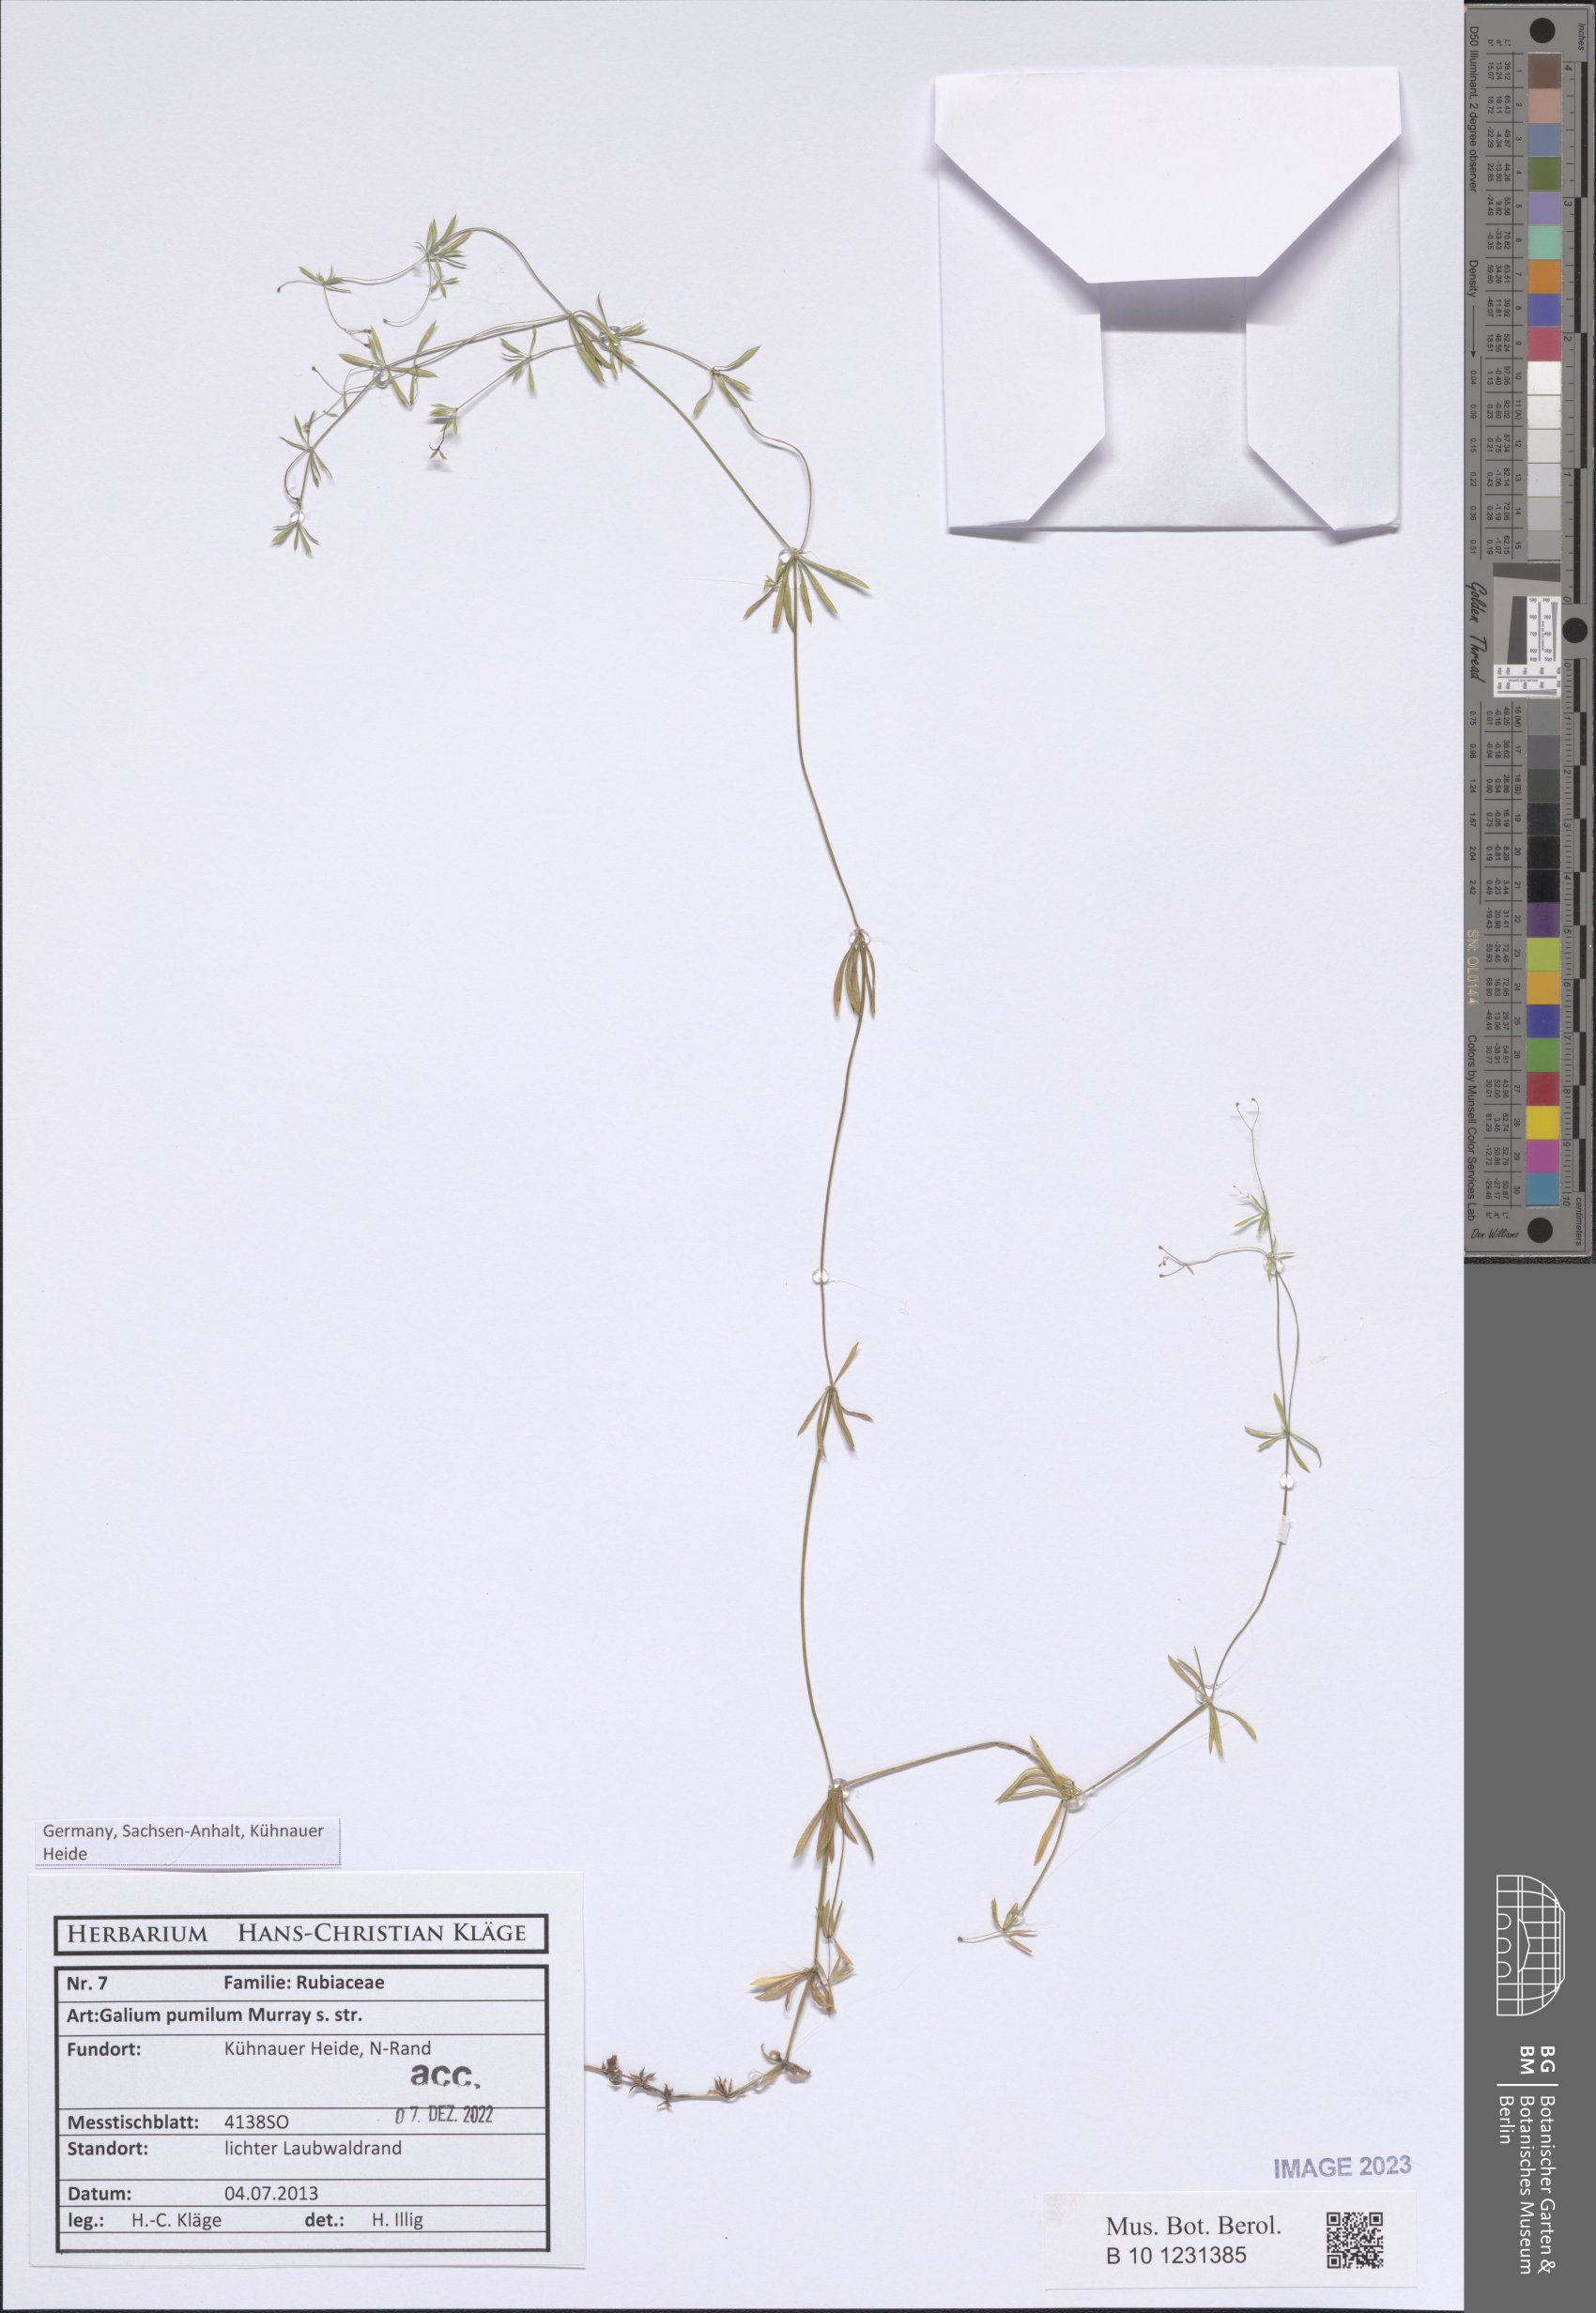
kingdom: Plantae
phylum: Tracheophyta
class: Magnoliopsida
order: Gentianales
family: Rubiaceae
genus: Galium
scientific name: Galium pumilum
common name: Slender bedstraw
